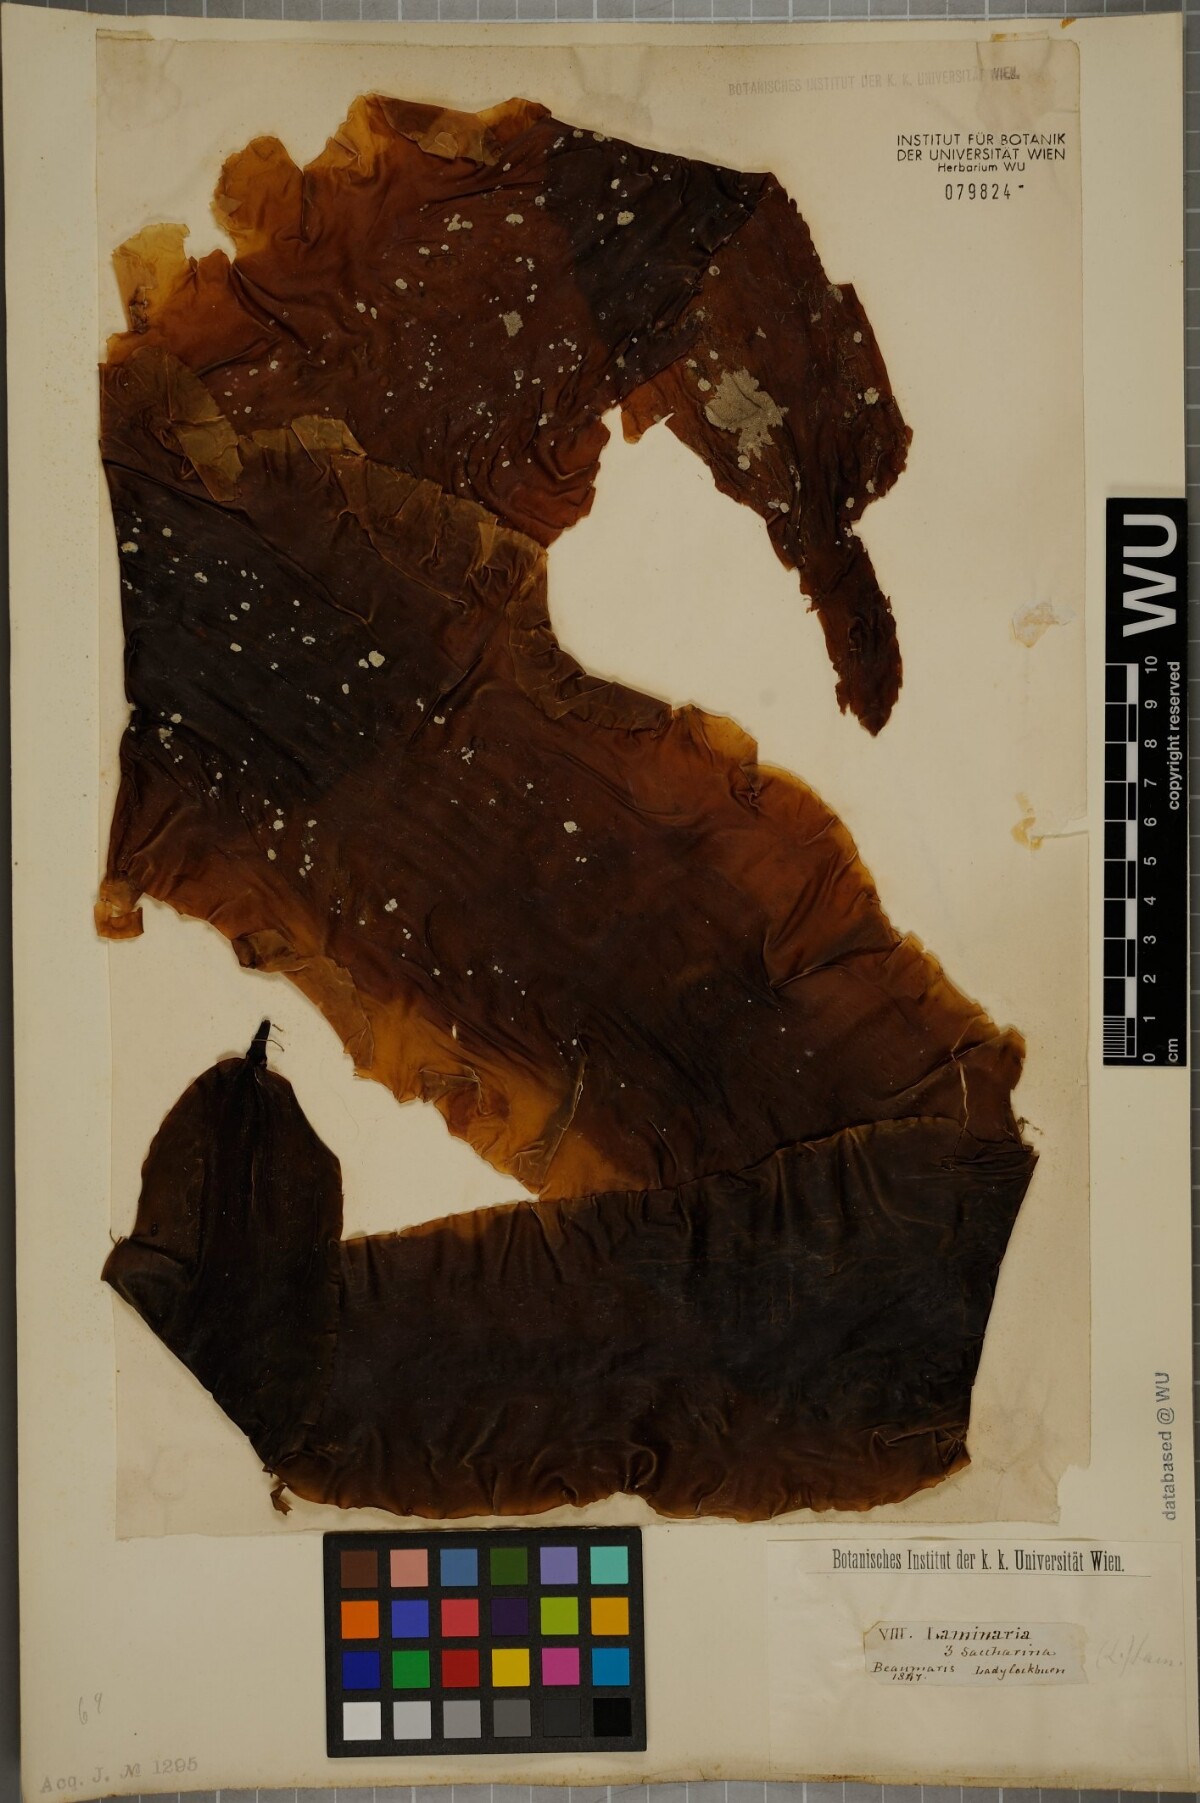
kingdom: Chromista
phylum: Ochrophyta
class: Phaeophyceae
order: Laminariales
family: Laminariaceae
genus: Saccharina
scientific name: Saccharina latissima
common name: Poor man's weather glass
